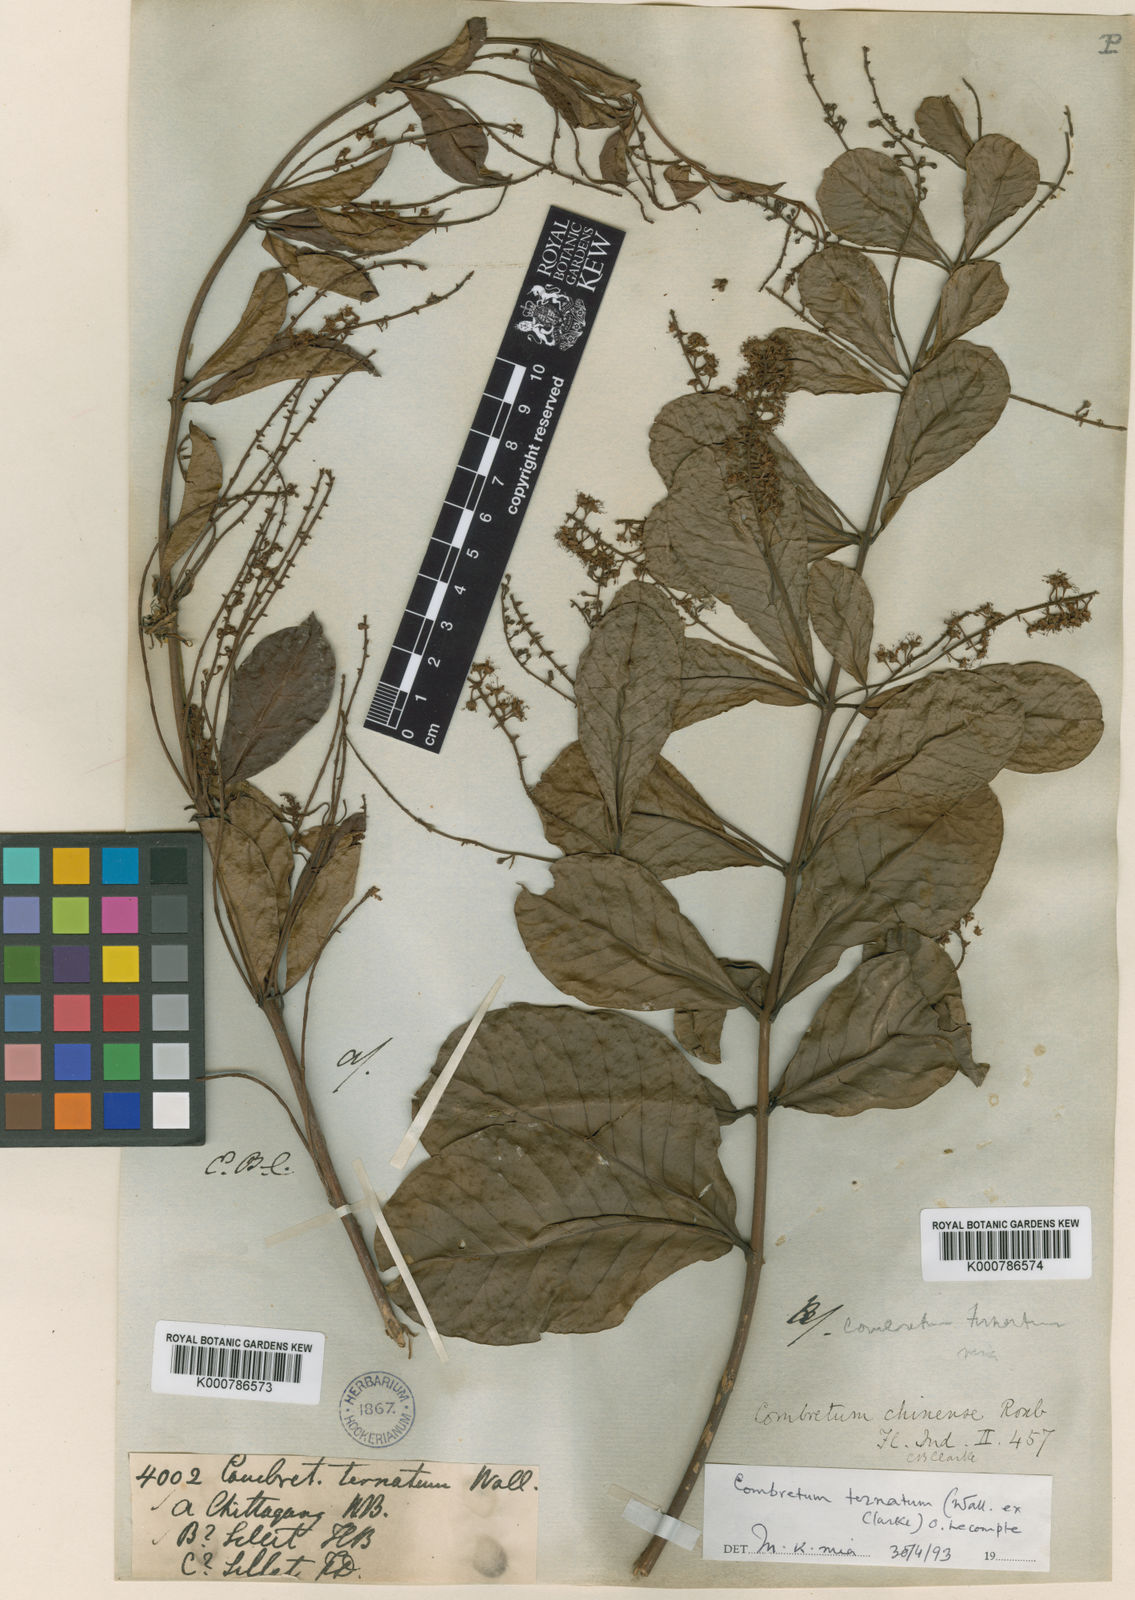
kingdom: Plantae
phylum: Tracheophyta
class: Magnoliopsida
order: Myrtales
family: Combretaceae
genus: Combretum
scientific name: Combretum griffithii
